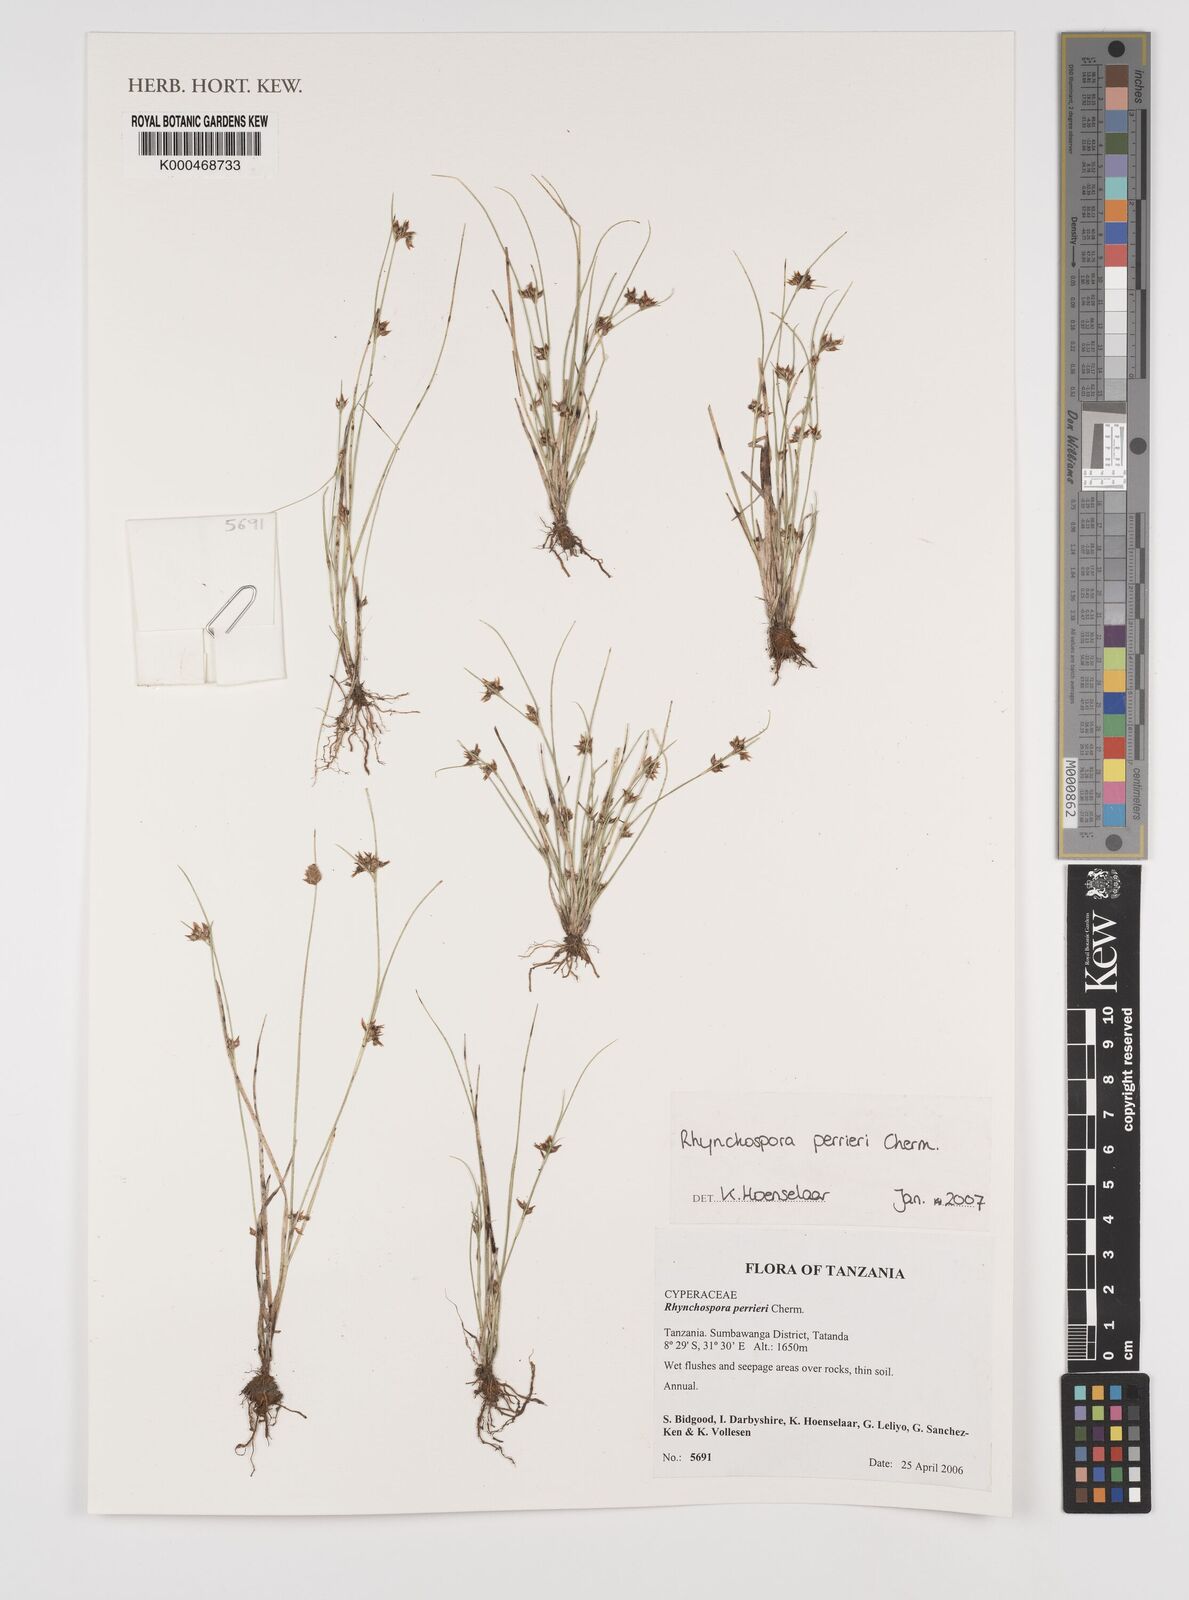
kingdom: Plantae
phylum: Tracheophyta
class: Liliopsida
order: Poales
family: Cyperaceae
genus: Rhynchospora
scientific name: Rhynchospora perrieri
